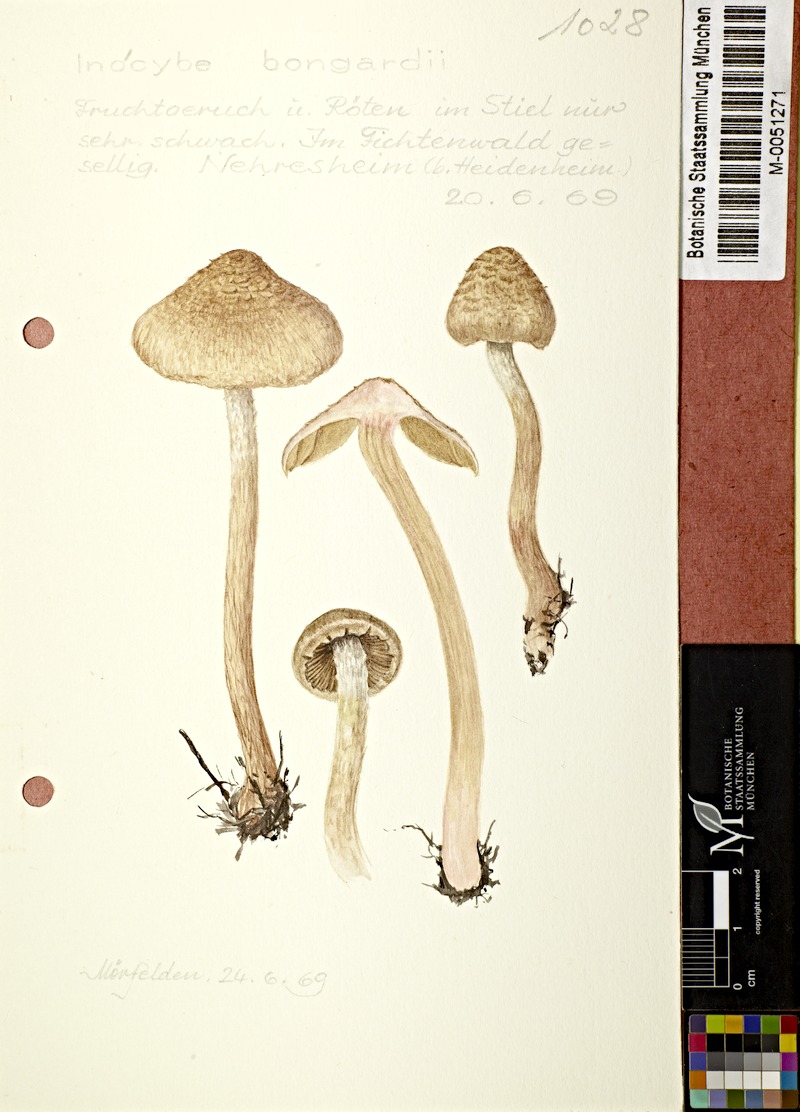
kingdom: Fungi
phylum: Basidiomycota
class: Agaricomycetes
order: Agaricales
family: Inocybaceae
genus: Inosperma
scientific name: Inosperma bongardii
